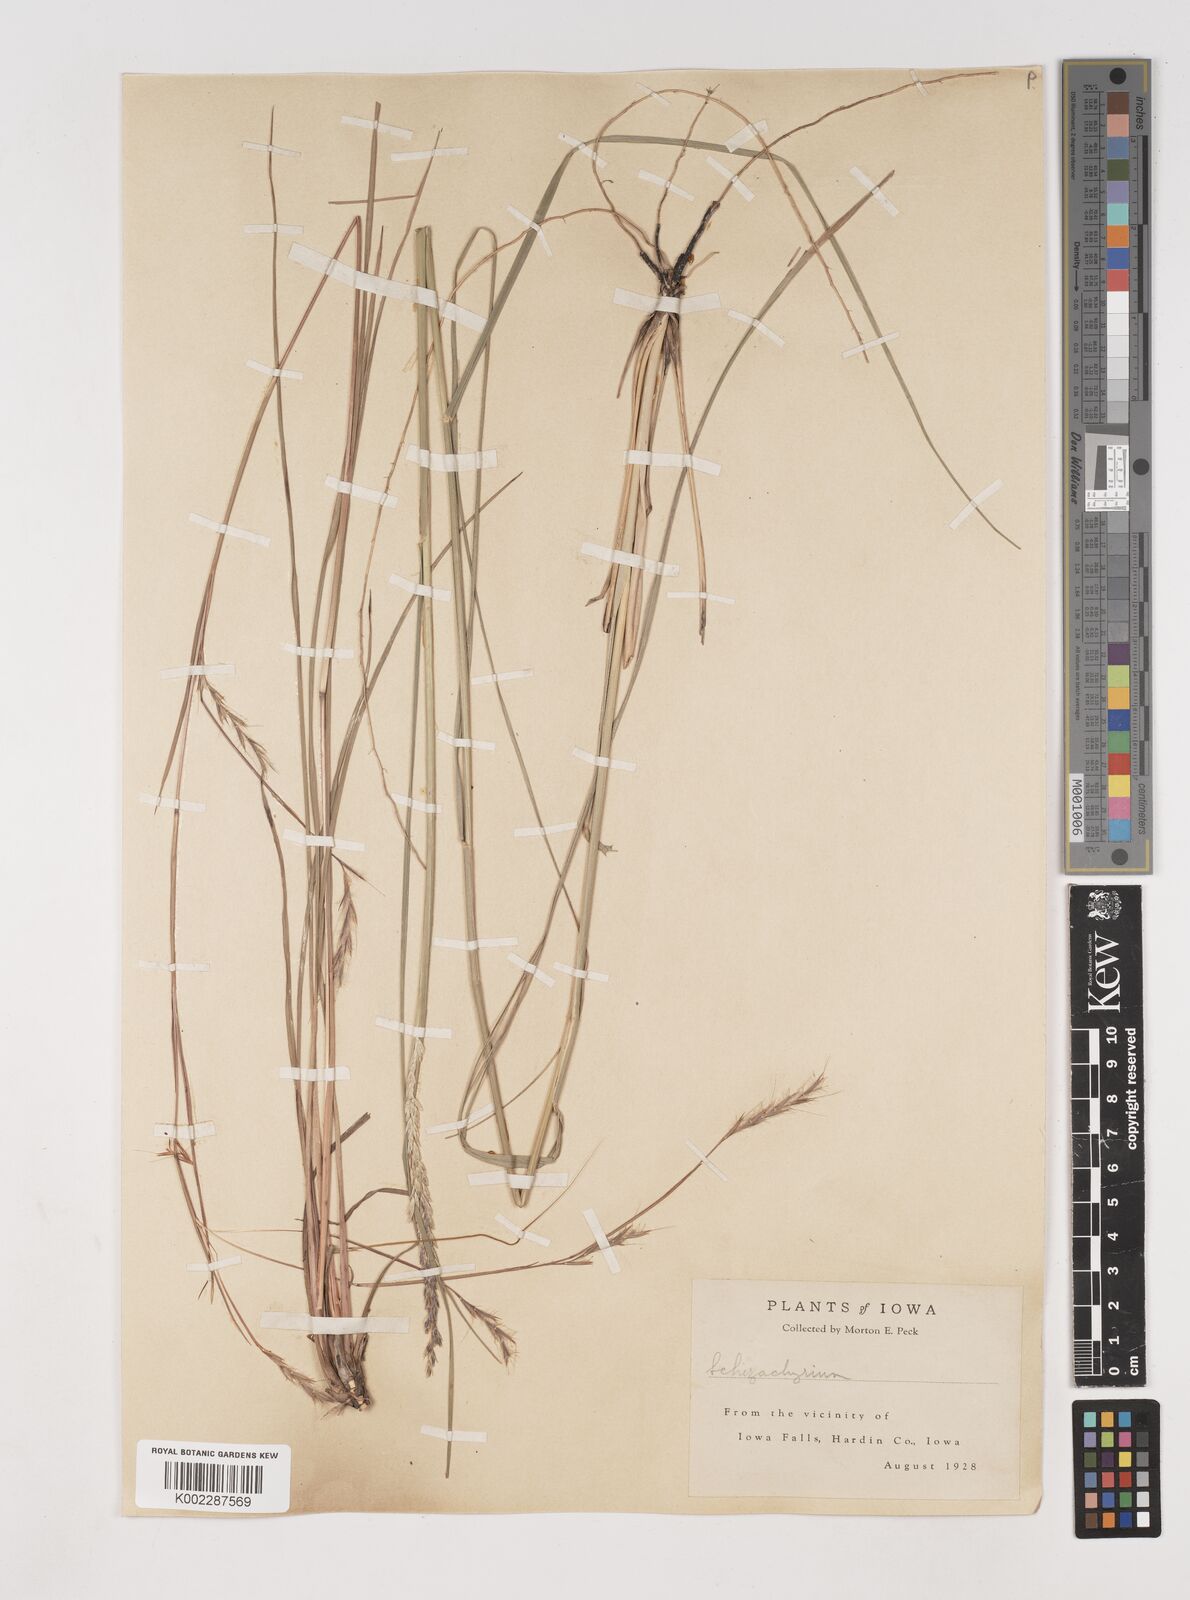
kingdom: Plantae
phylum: Tracheophyta
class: Liliopsida
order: Poales
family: Poaceae
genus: Schizachyrium
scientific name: Schizachyrium scoparium
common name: Little bluestem
